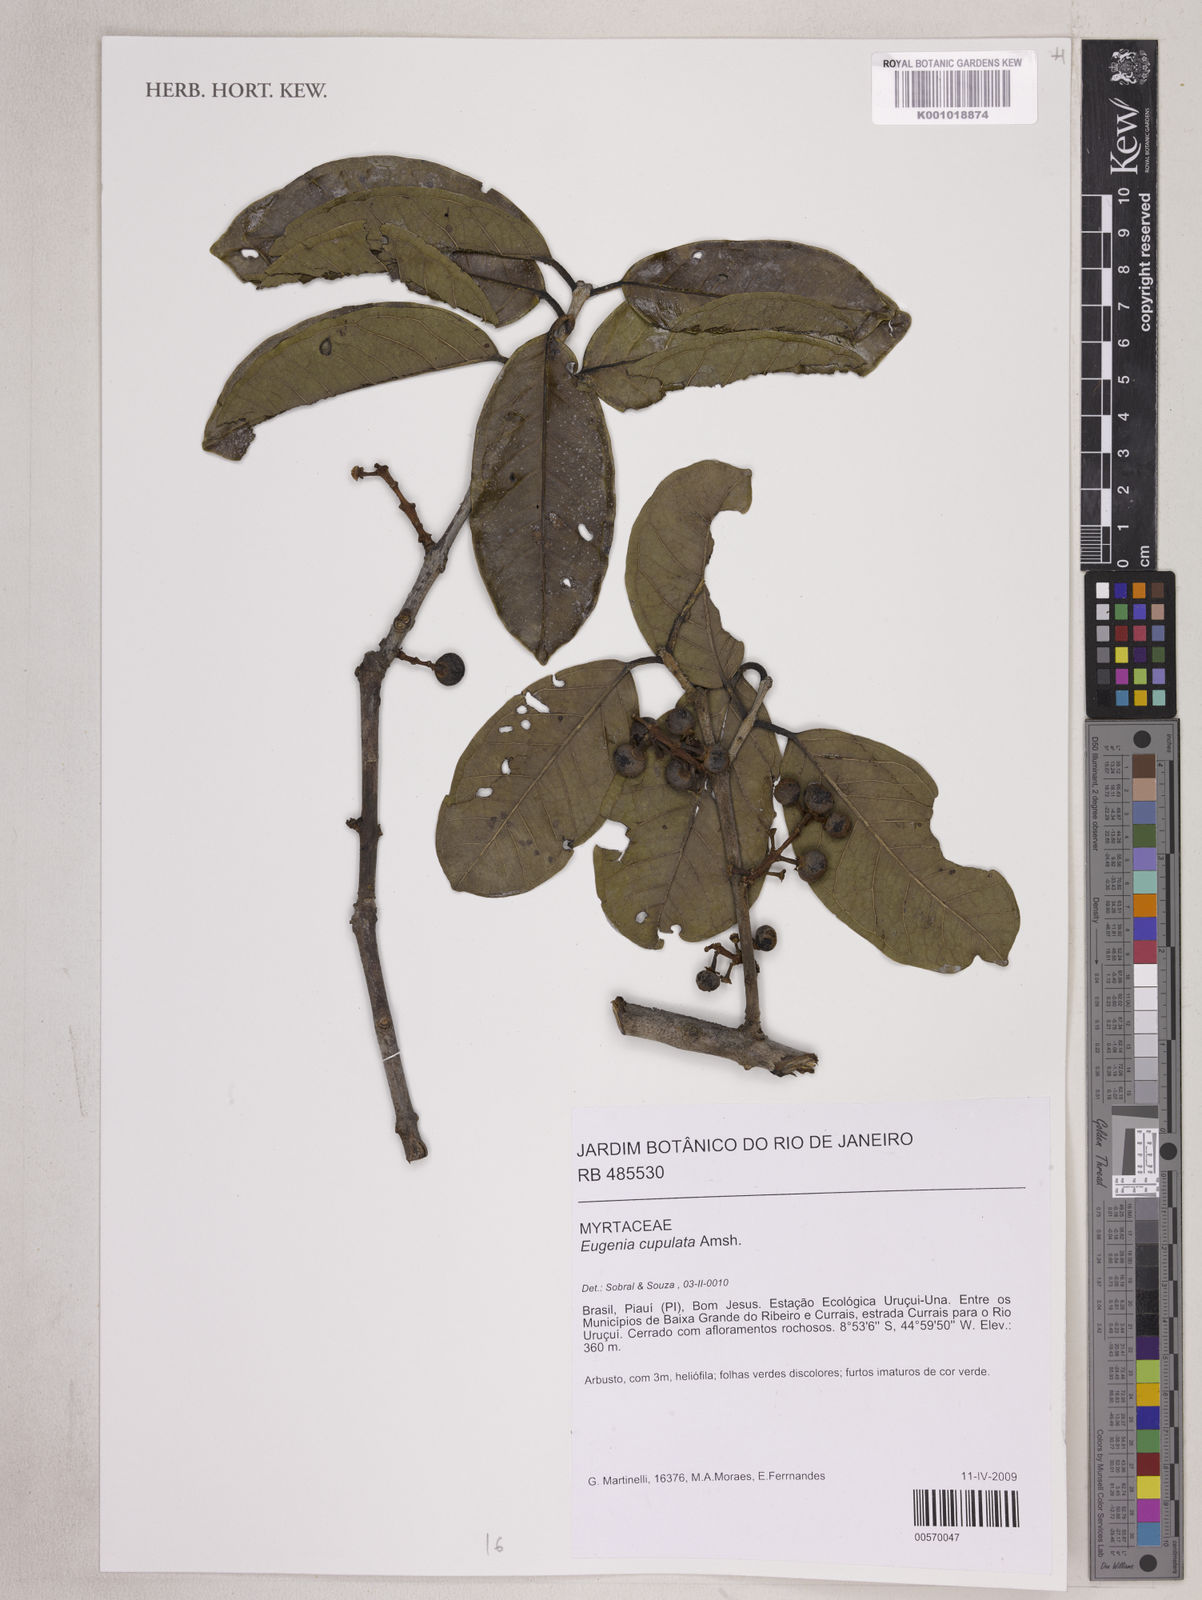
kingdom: Plantae
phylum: Tracheophyta
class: Magnoliopsida
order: Myrtales
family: Myrtaceae
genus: Eugenia
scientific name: Eugenia cupulata
